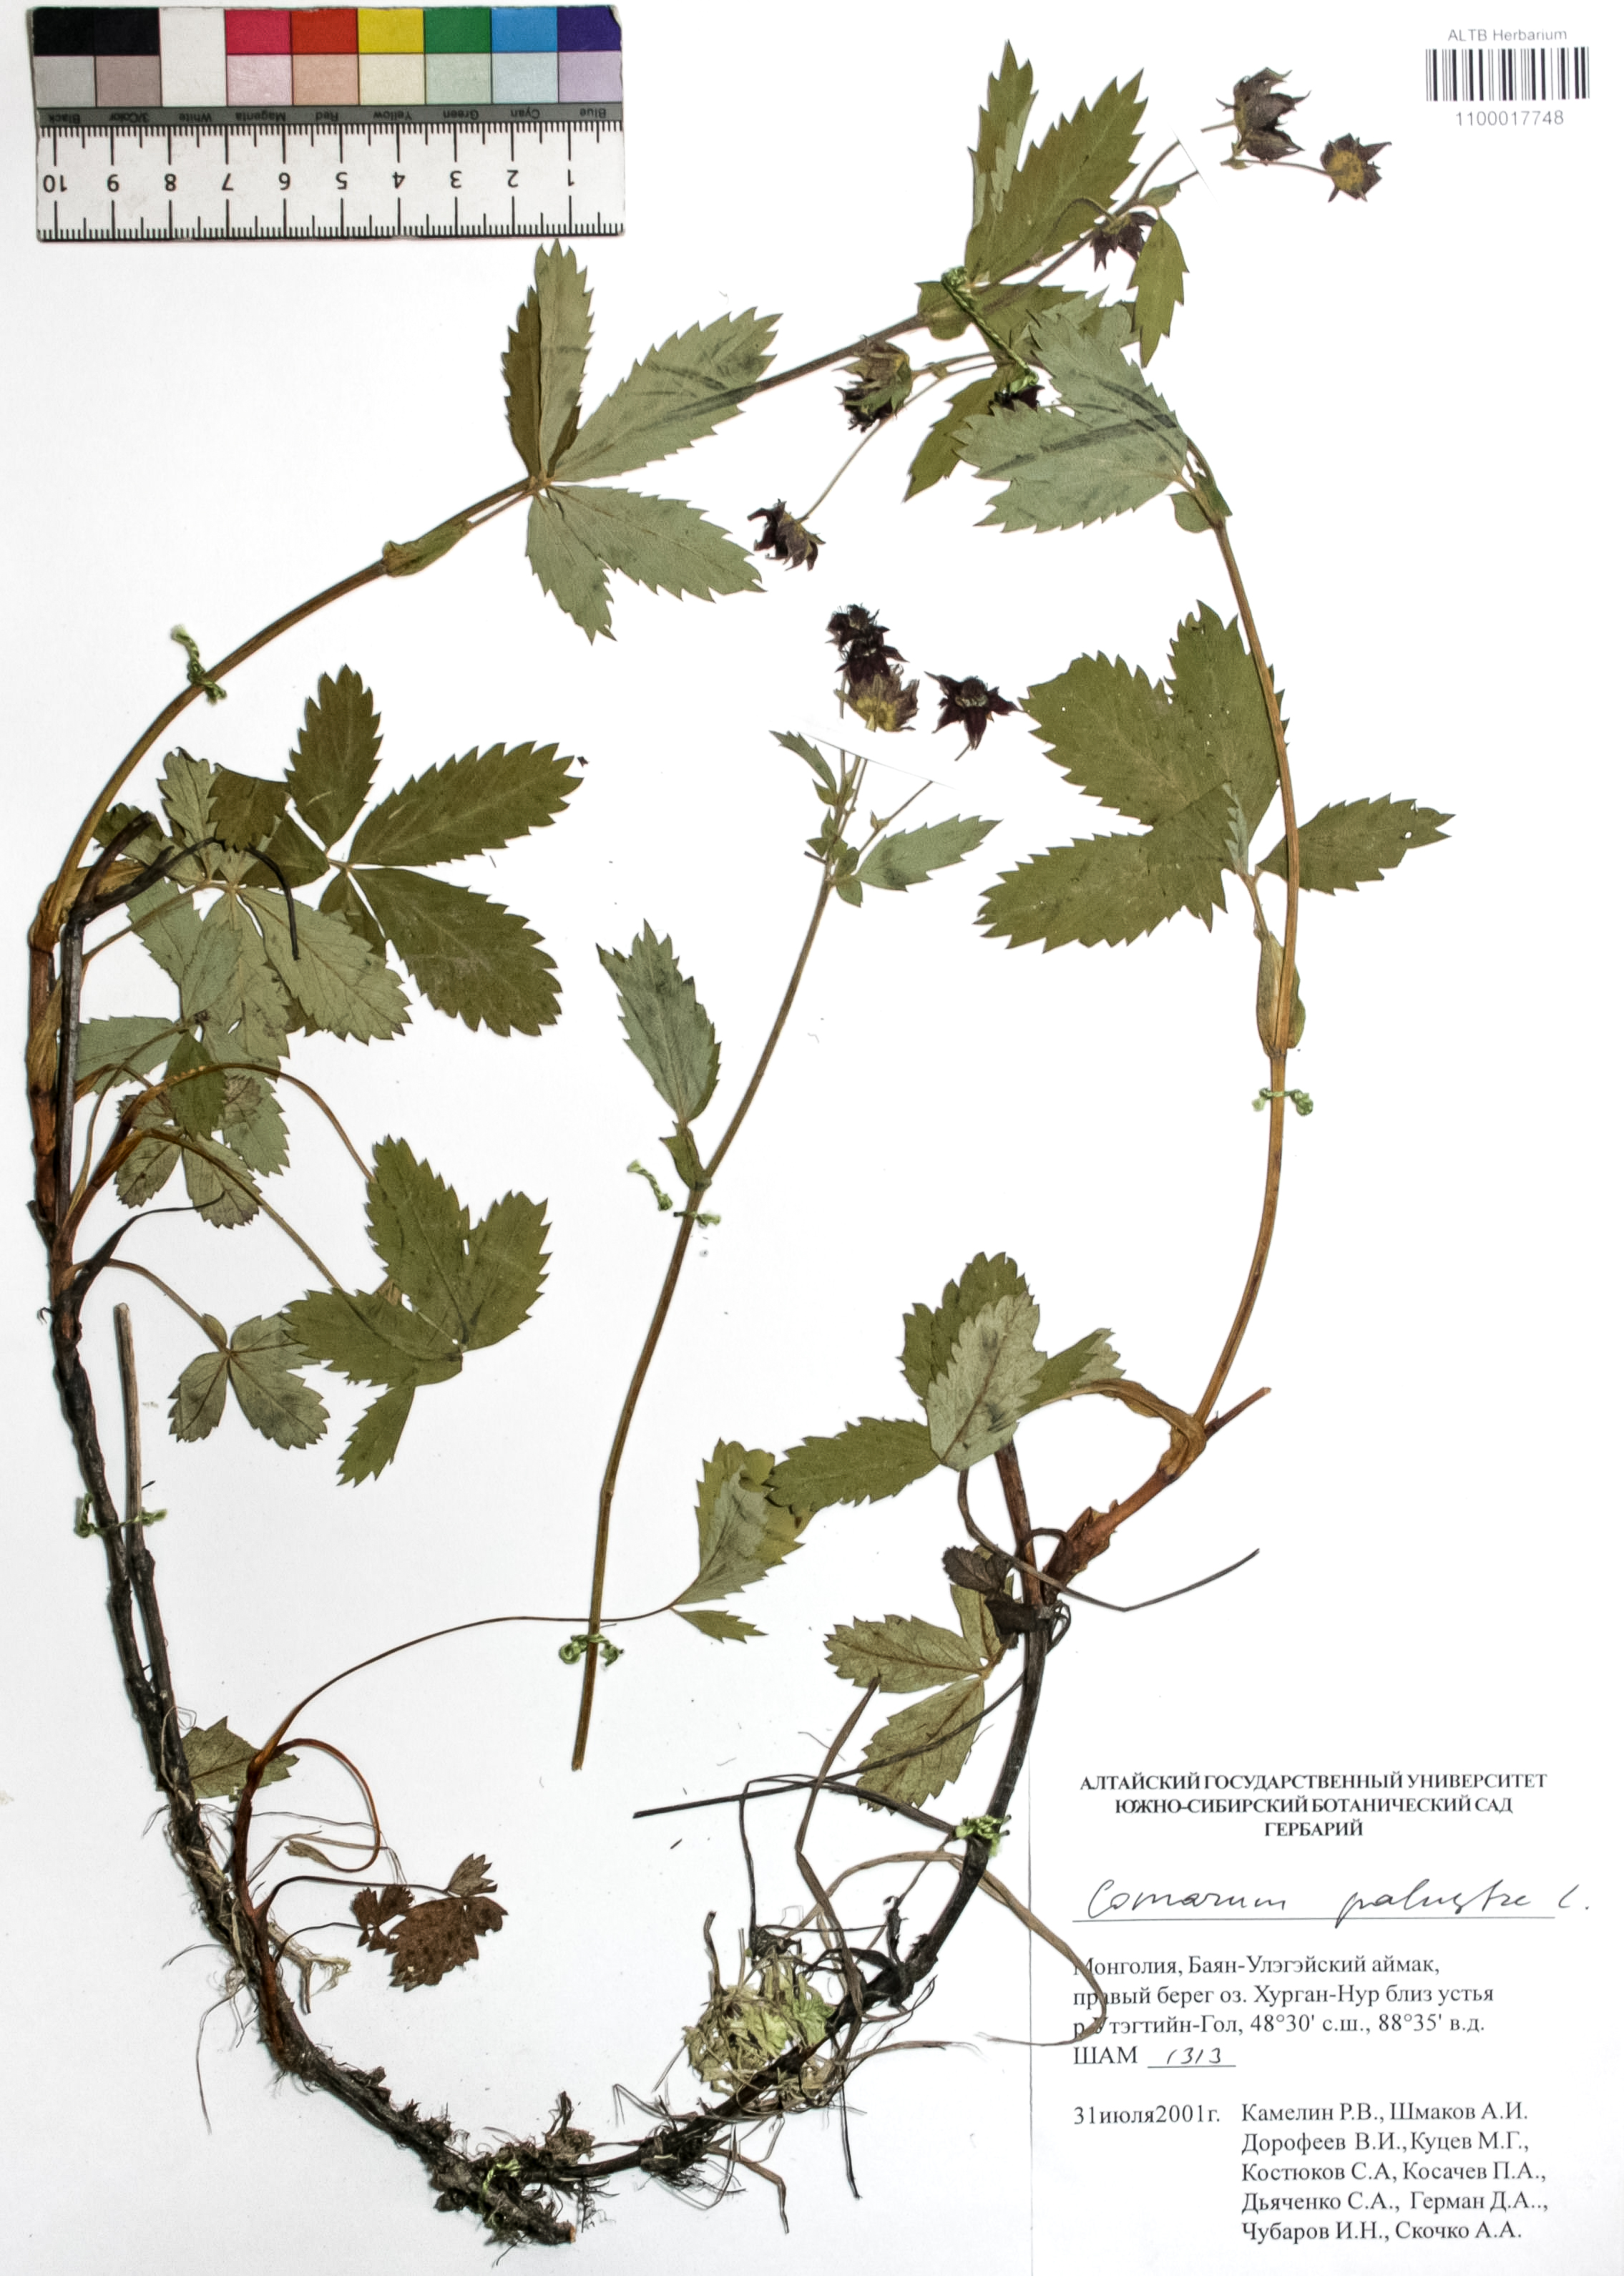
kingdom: Plantae
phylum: Tracheophyta
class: Magnoliopsida
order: Rosales
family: Rosaceae
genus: Comarum
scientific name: Comarum palustre
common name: Marsh cinquefoil
